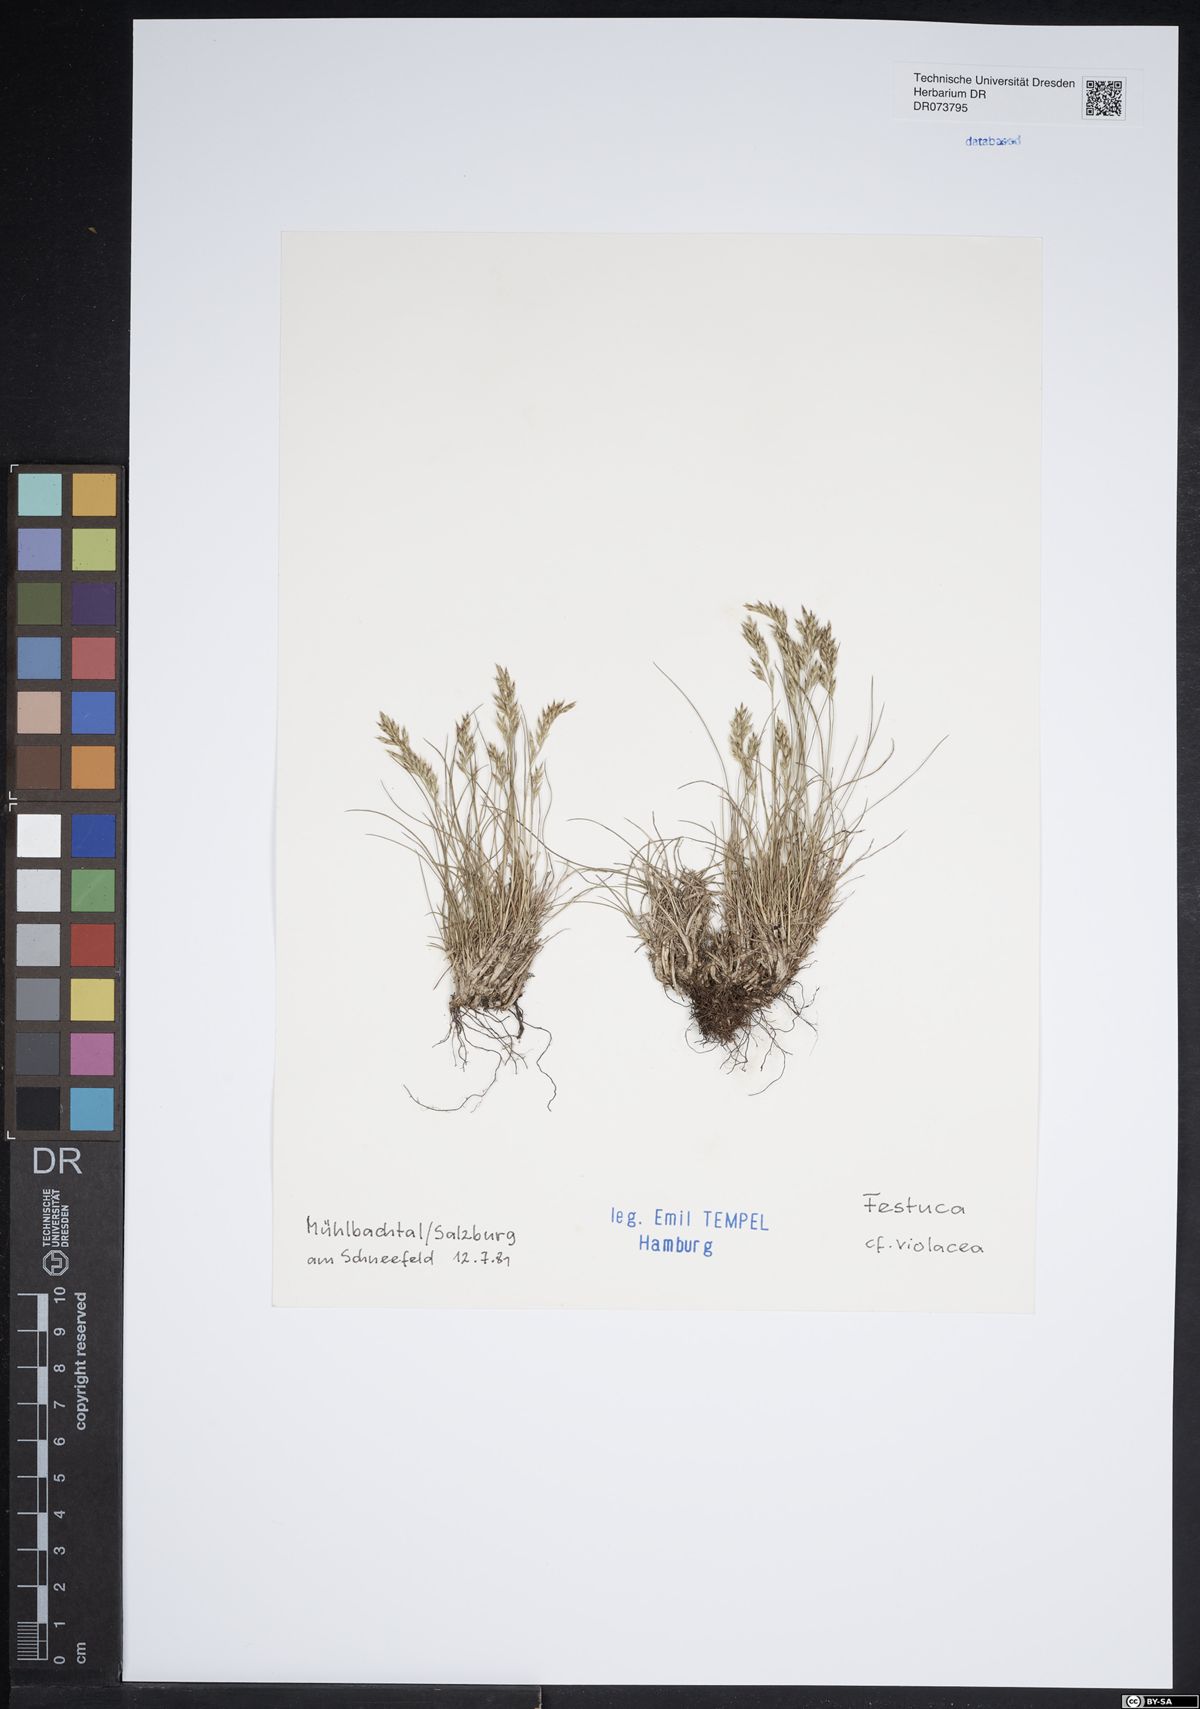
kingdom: Plantae
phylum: Tracheophyta
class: Liliopsida
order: Poales
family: Poaceae
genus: Festuca
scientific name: Festuca violacea
